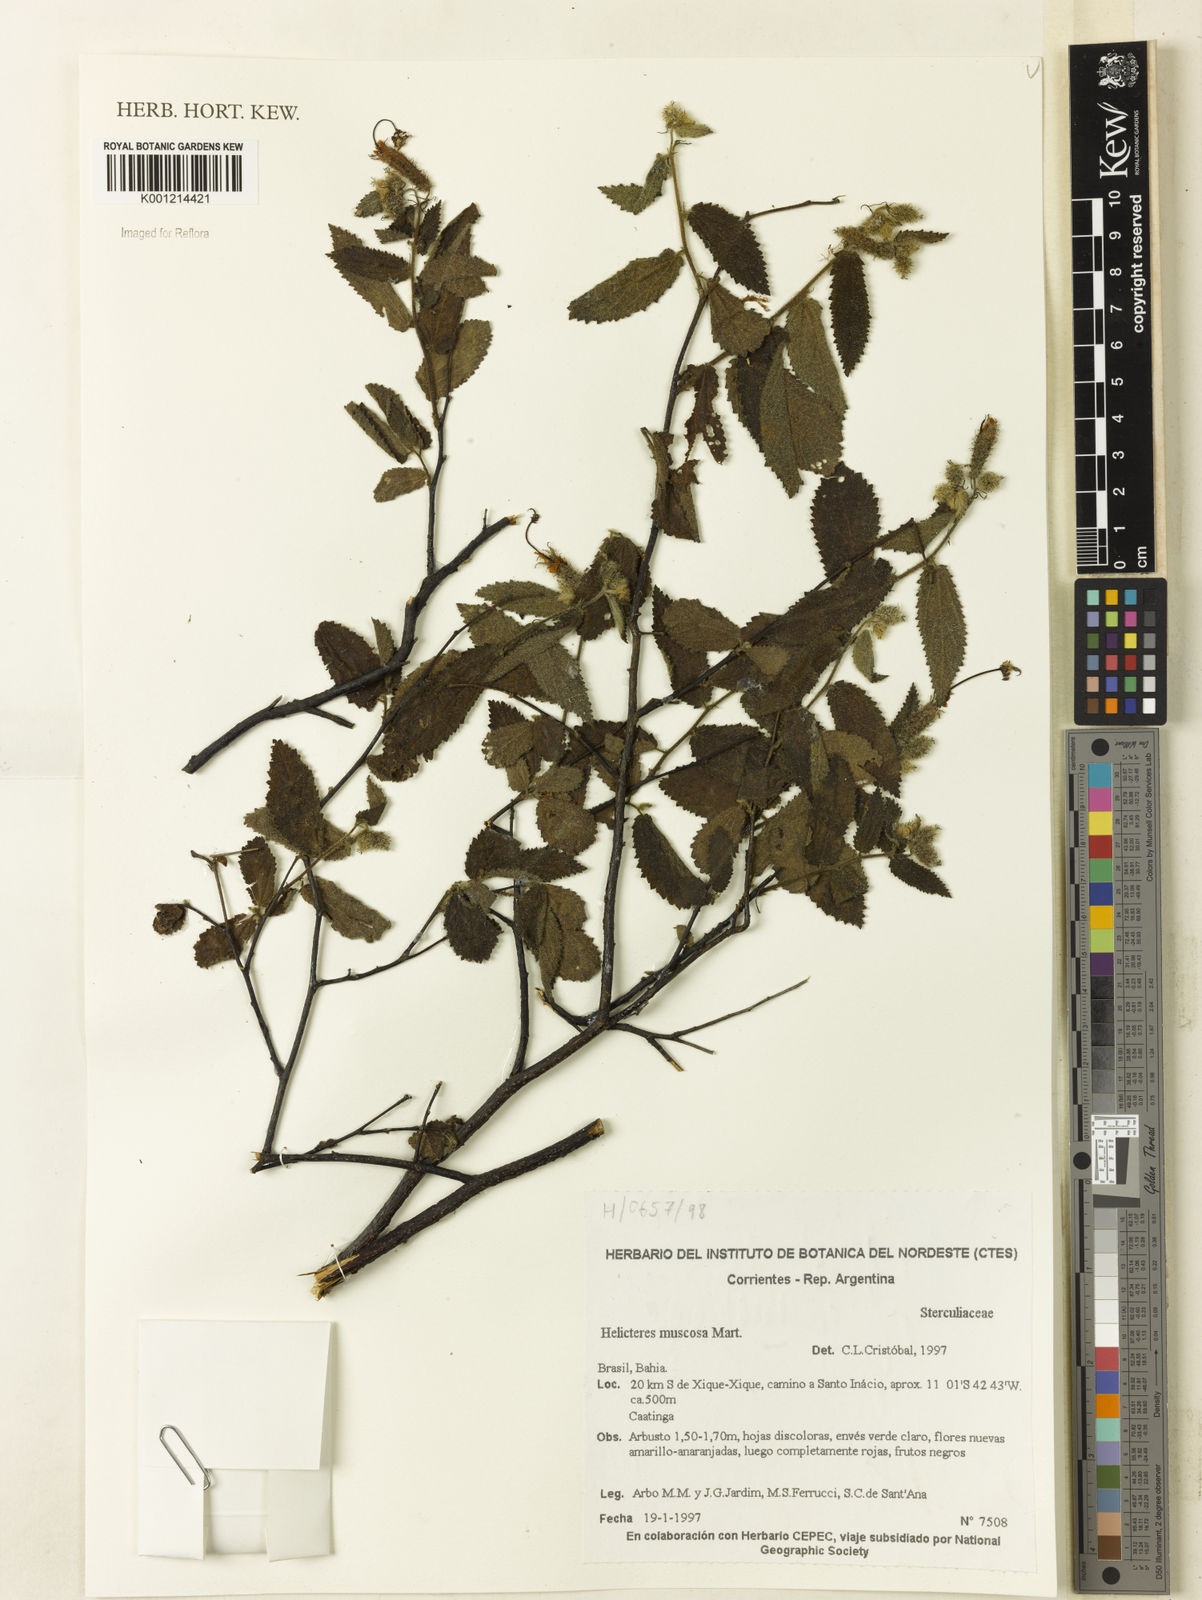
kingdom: Plantae
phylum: Tracheophyta
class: Magnoliopsida
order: Malvales
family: Malvaceae
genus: Helicteres
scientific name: Helicteres muscosa
